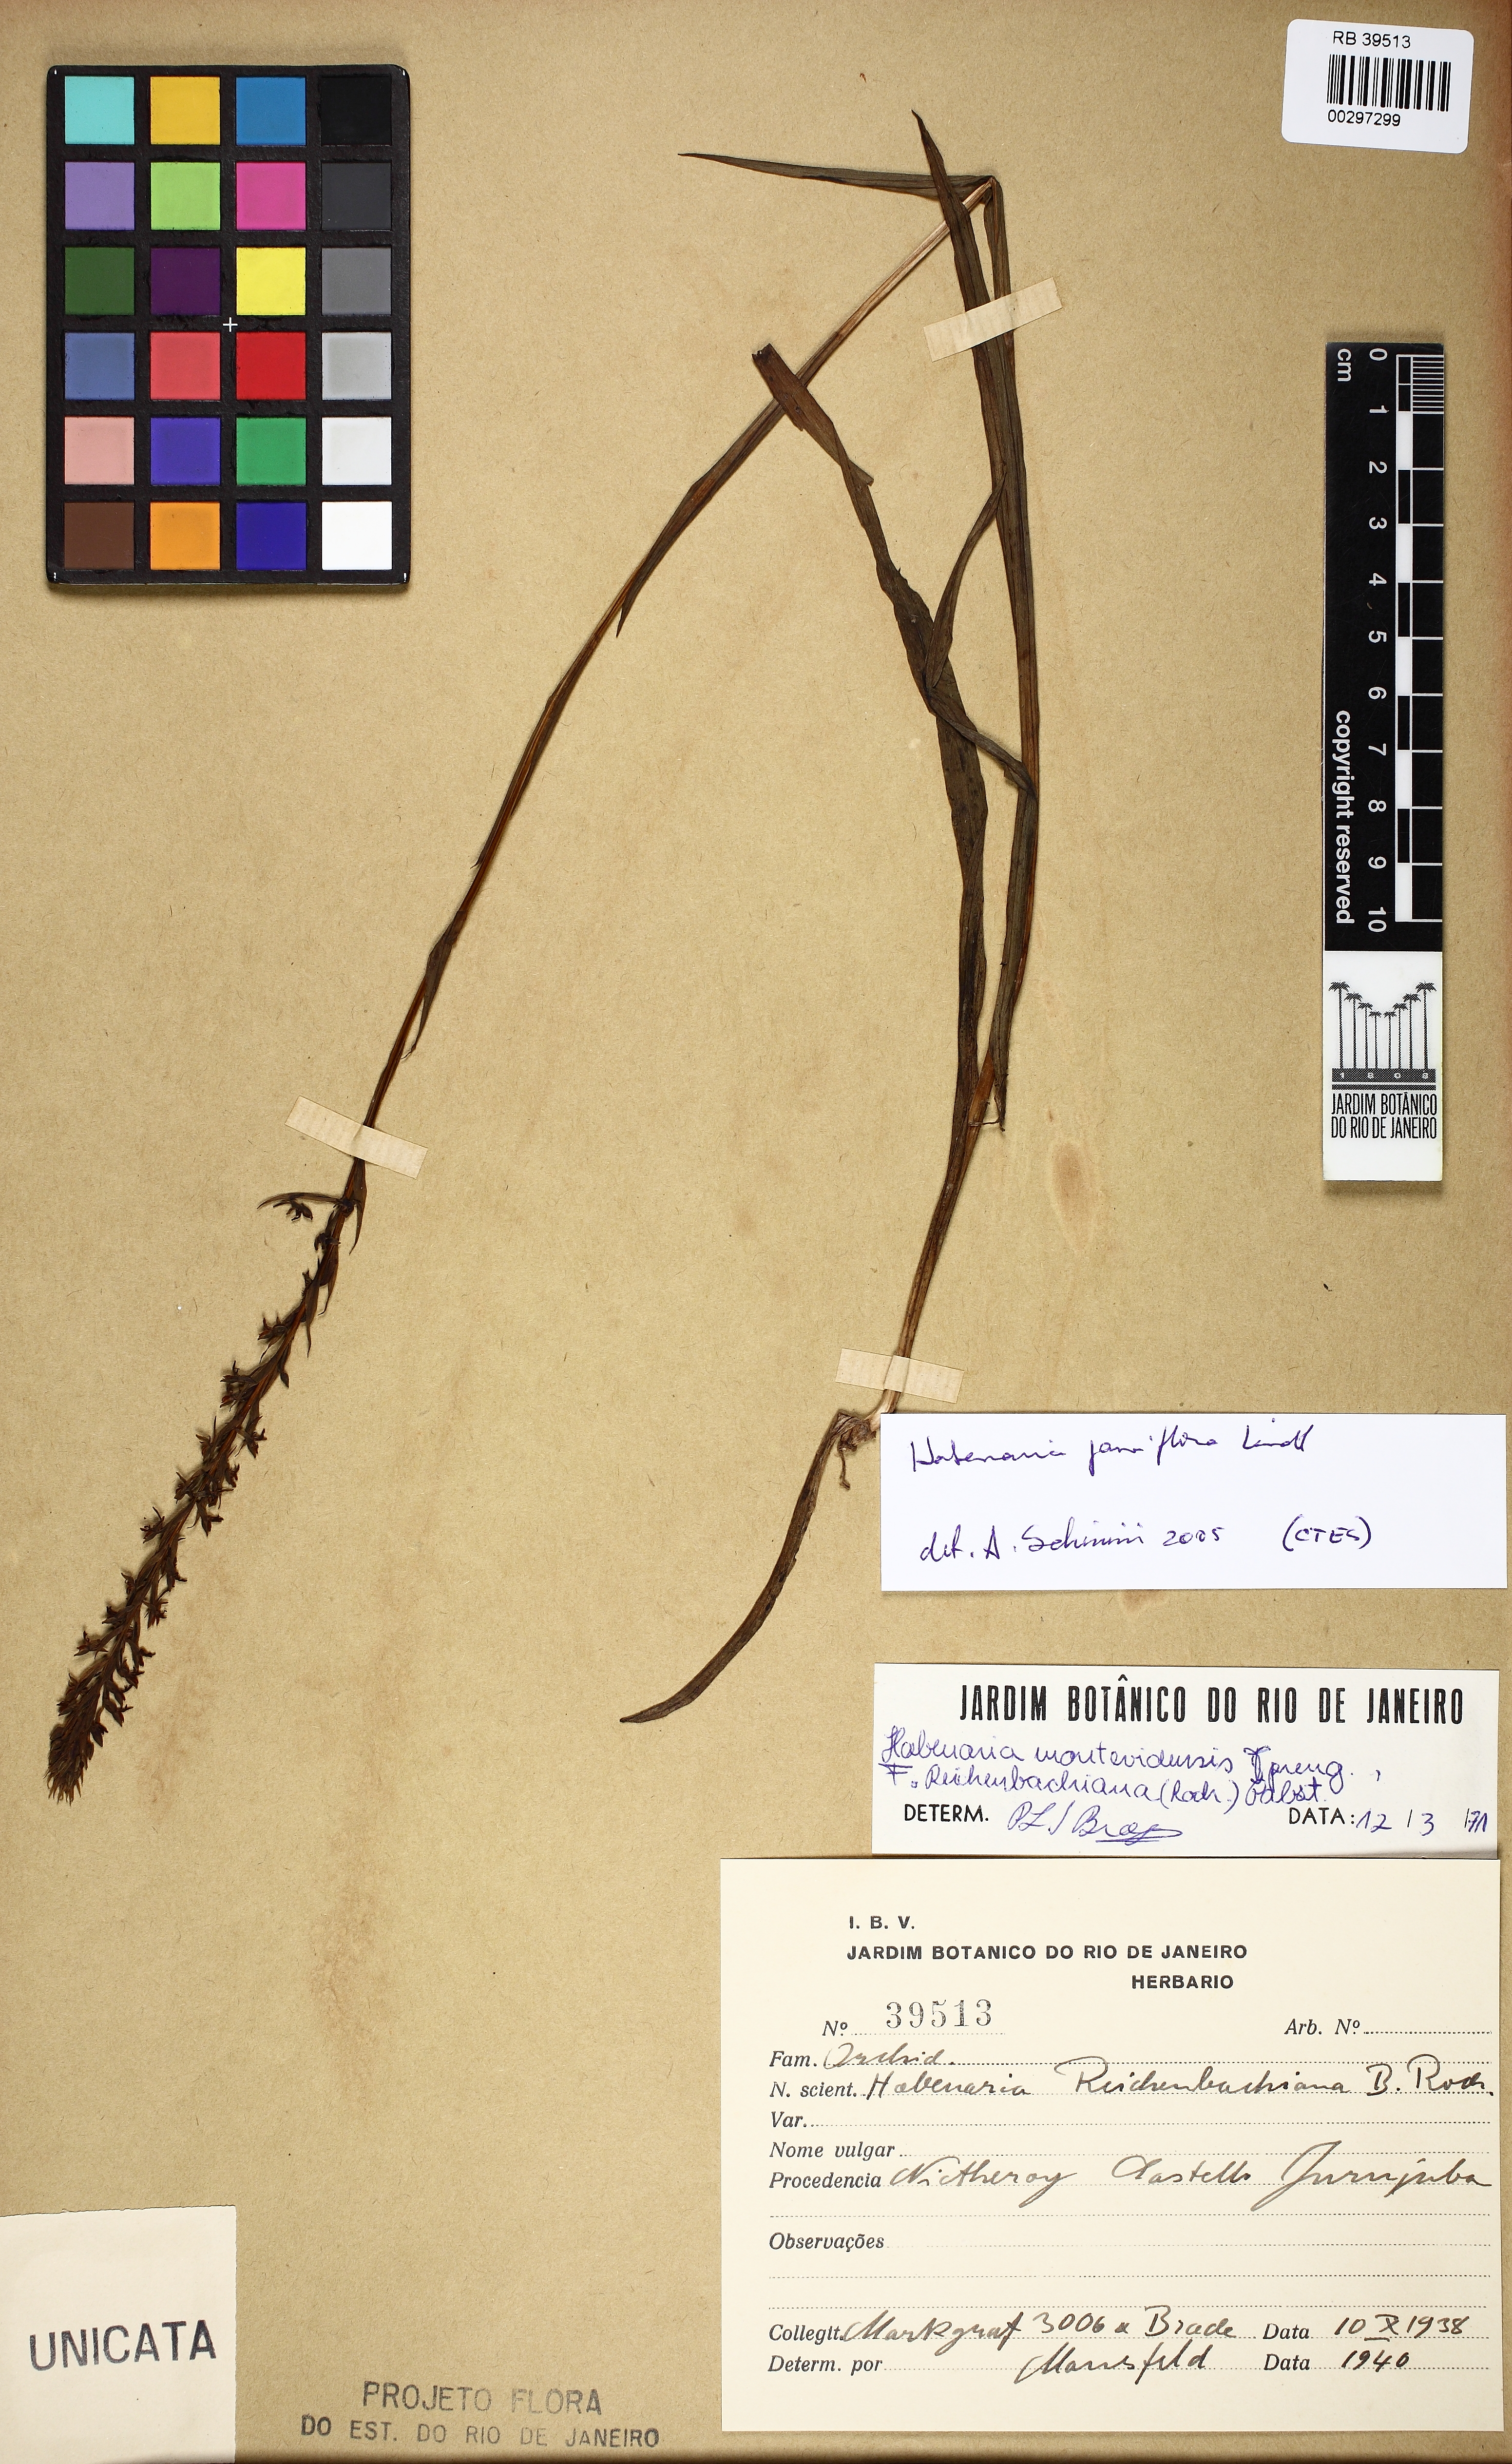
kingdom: Plantae
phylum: Tracheophyta
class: Liliopsida
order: Asparagales
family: Orchidaceae
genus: Habenaria
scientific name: Habenaria parviflora
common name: Small flowered habenaria
